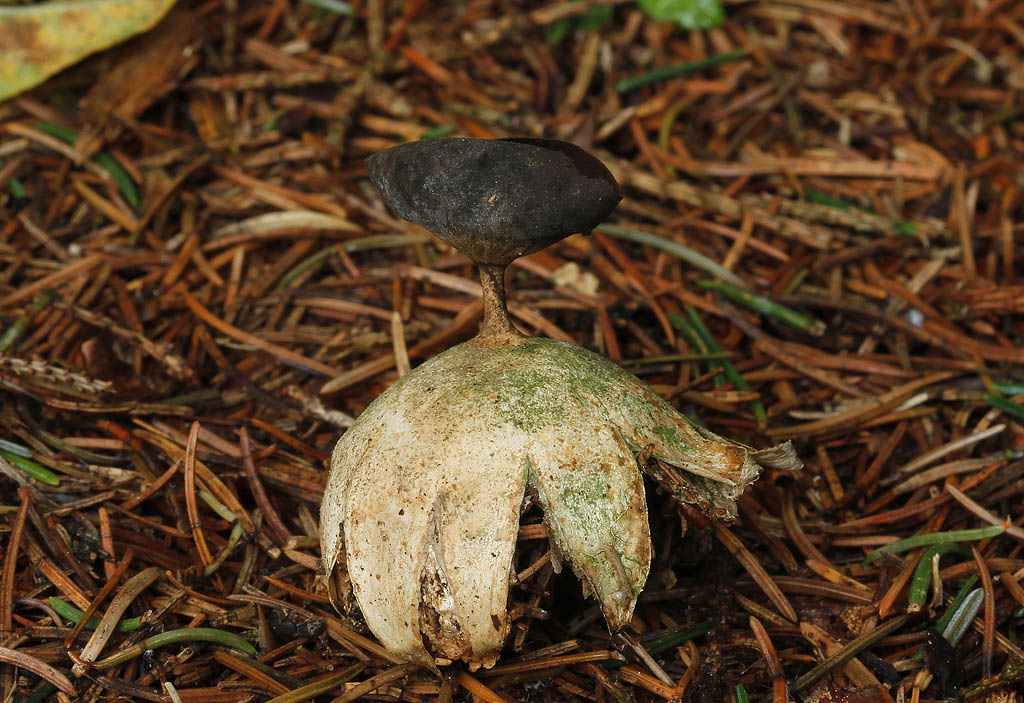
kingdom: Fungi
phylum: Basidiomycota
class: Agaricomycetes
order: Geastrales
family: Geastraceae
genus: Geastrum
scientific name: Geastrum pectinatum
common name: stilket stjernebold
